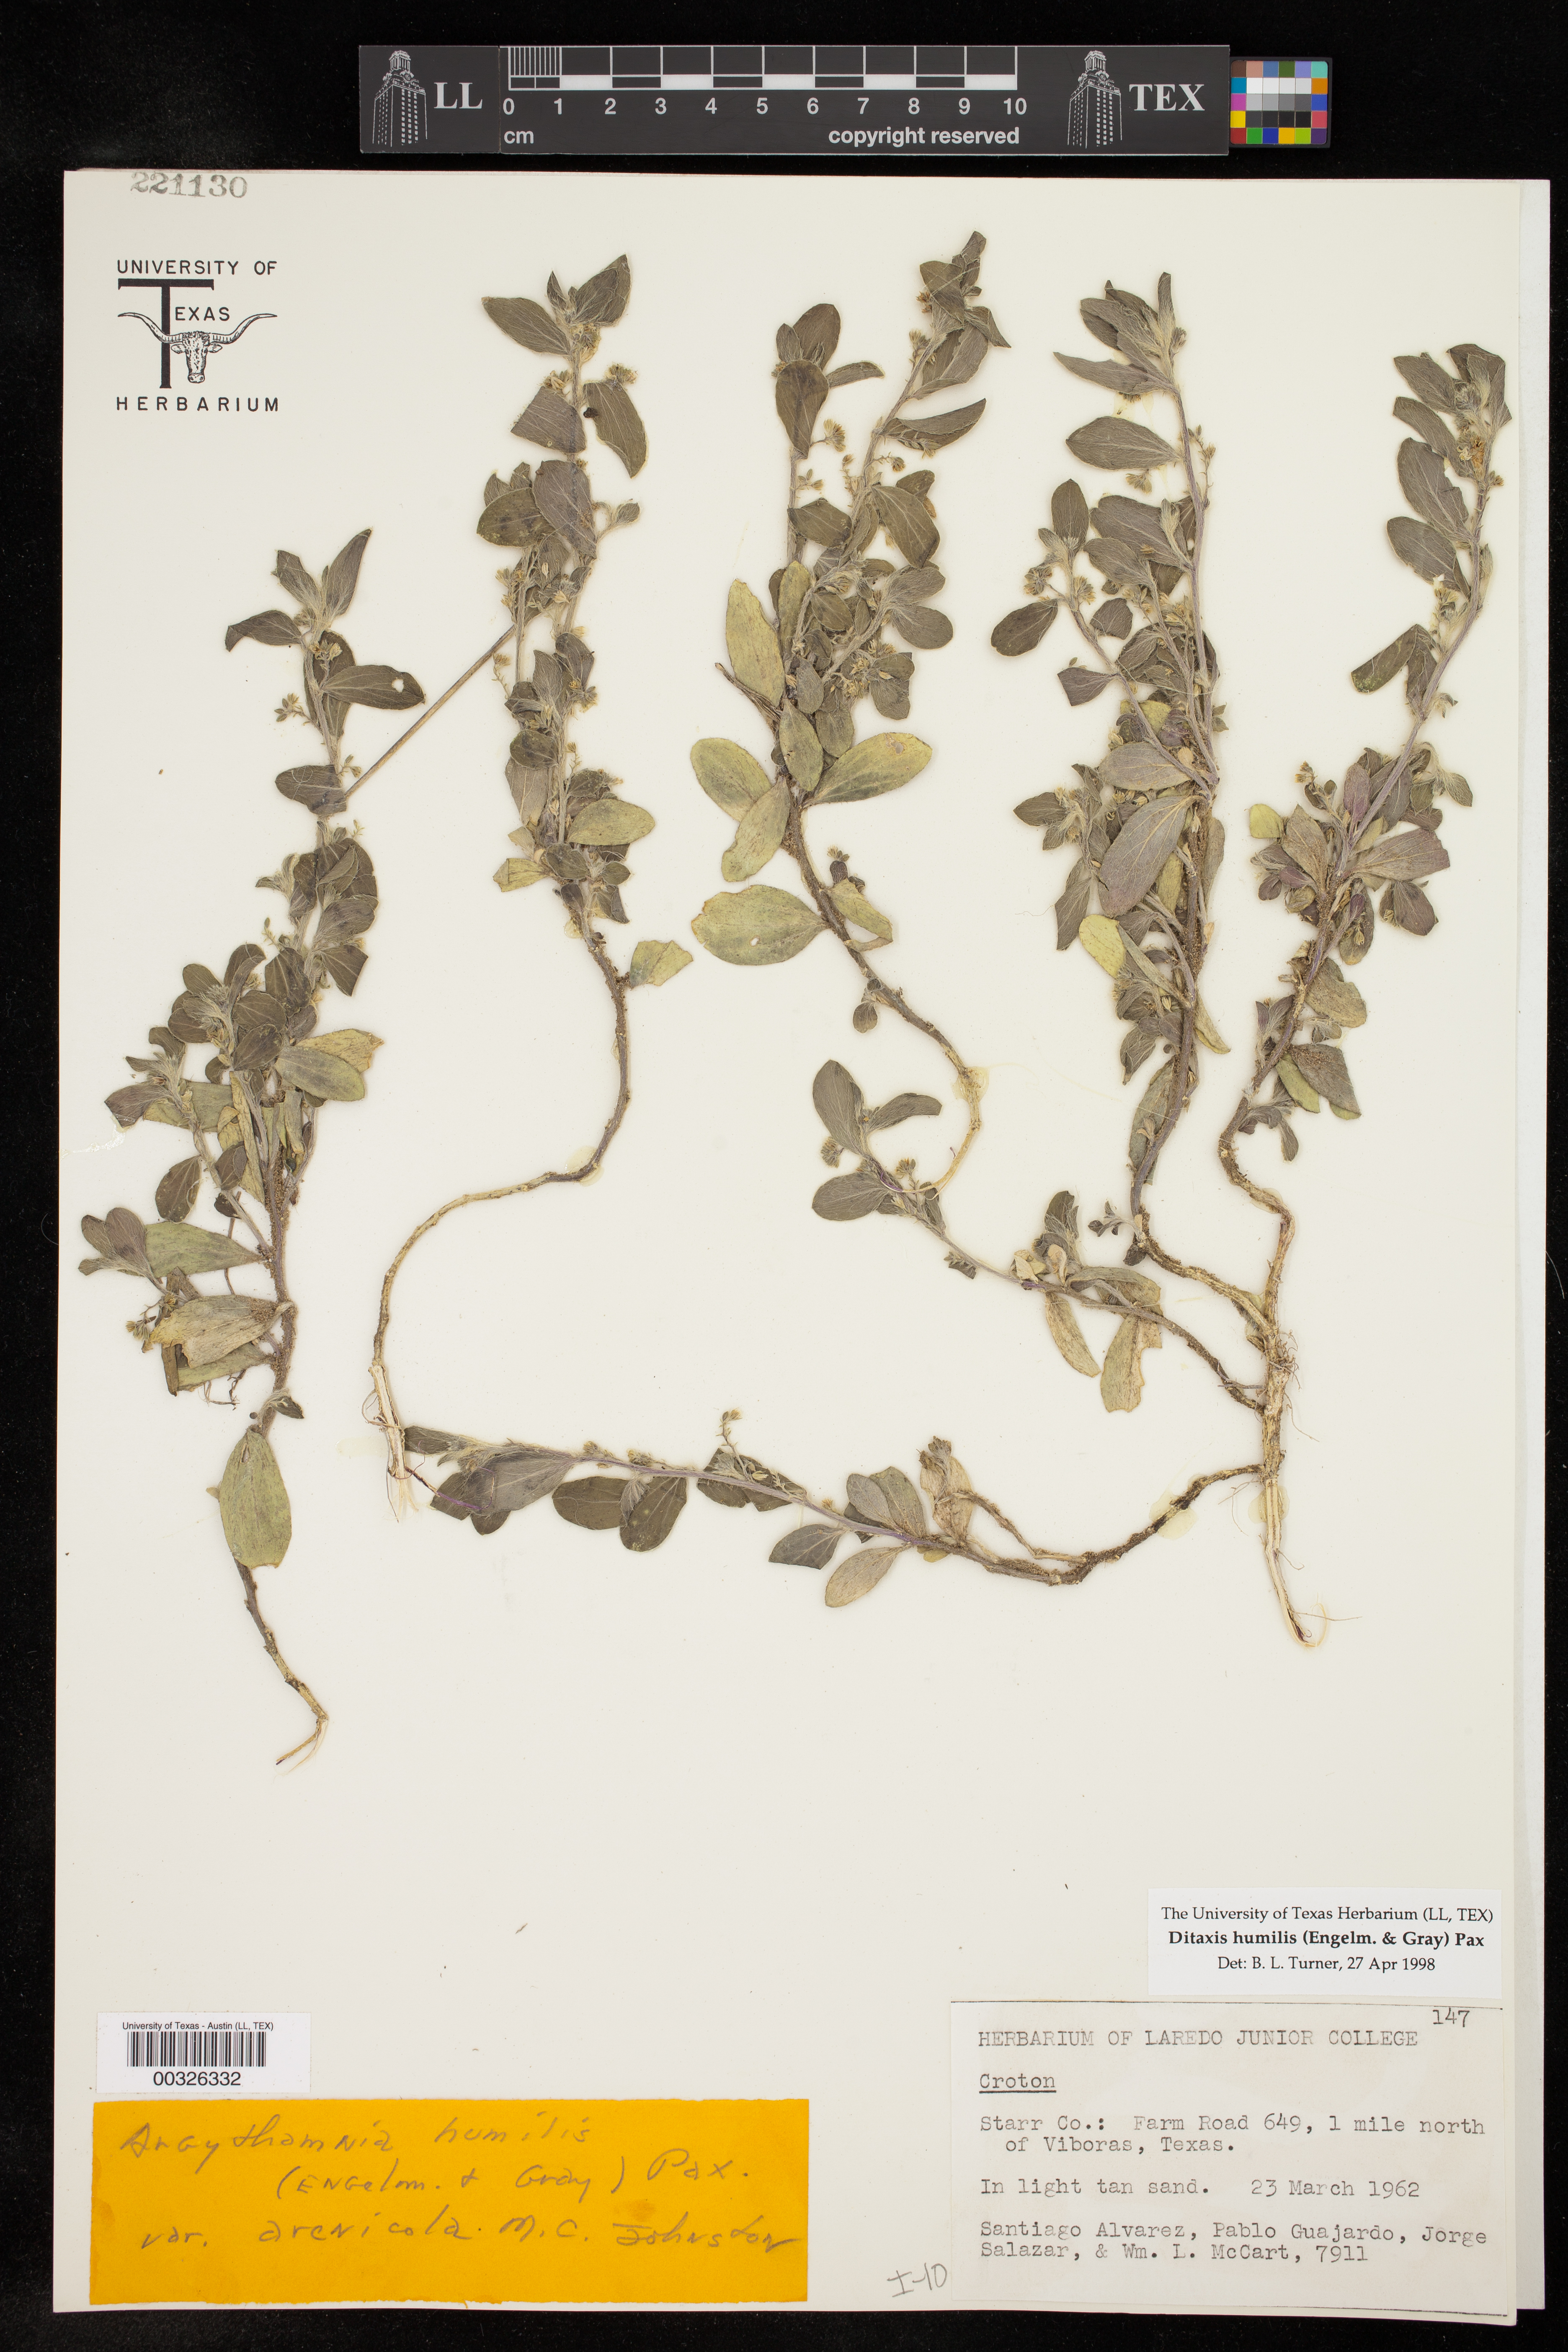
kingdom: Plantae
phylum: Tracheophyta
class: Magnoliopsida
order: Malpighiales
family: Euphorbiaceae
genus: Ditaxis
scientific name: Ditaxis humilis
